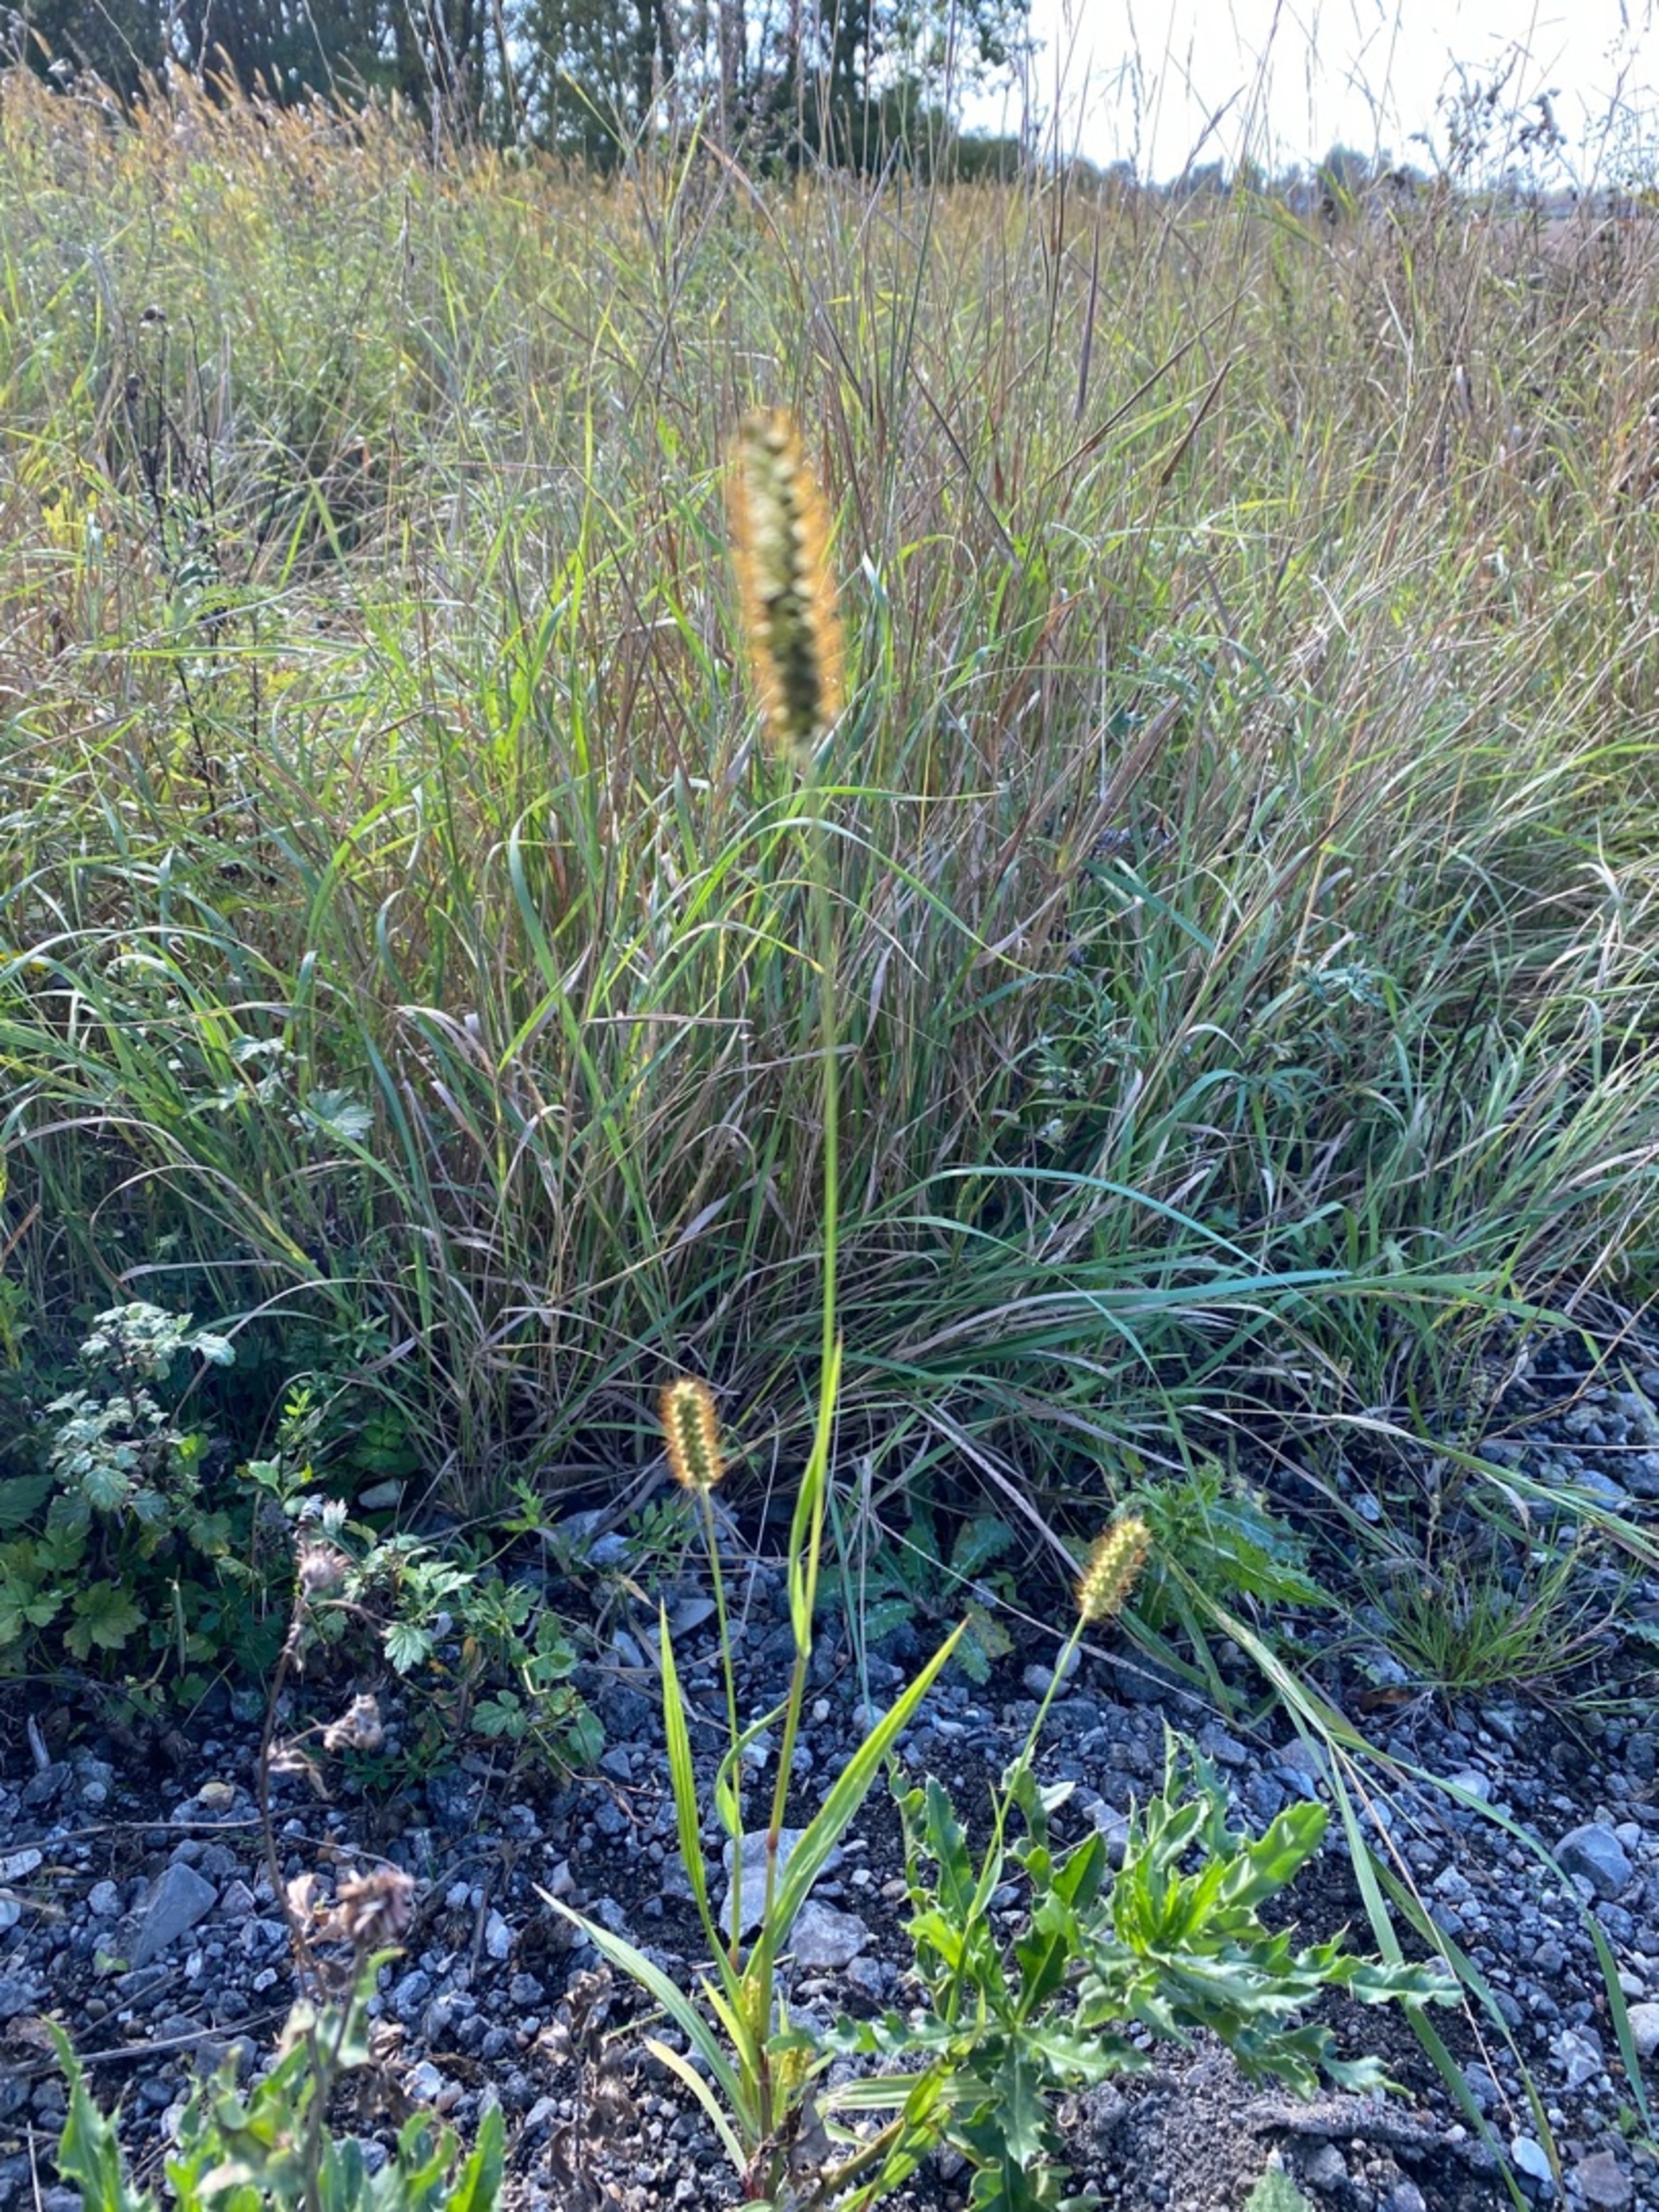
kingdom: Plantae
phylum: Tracheophyta
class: Liliopsida
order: Poales
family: Poaceae
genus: Setaria
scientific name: Setaria pumila
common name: Blågrøn skærmaks
